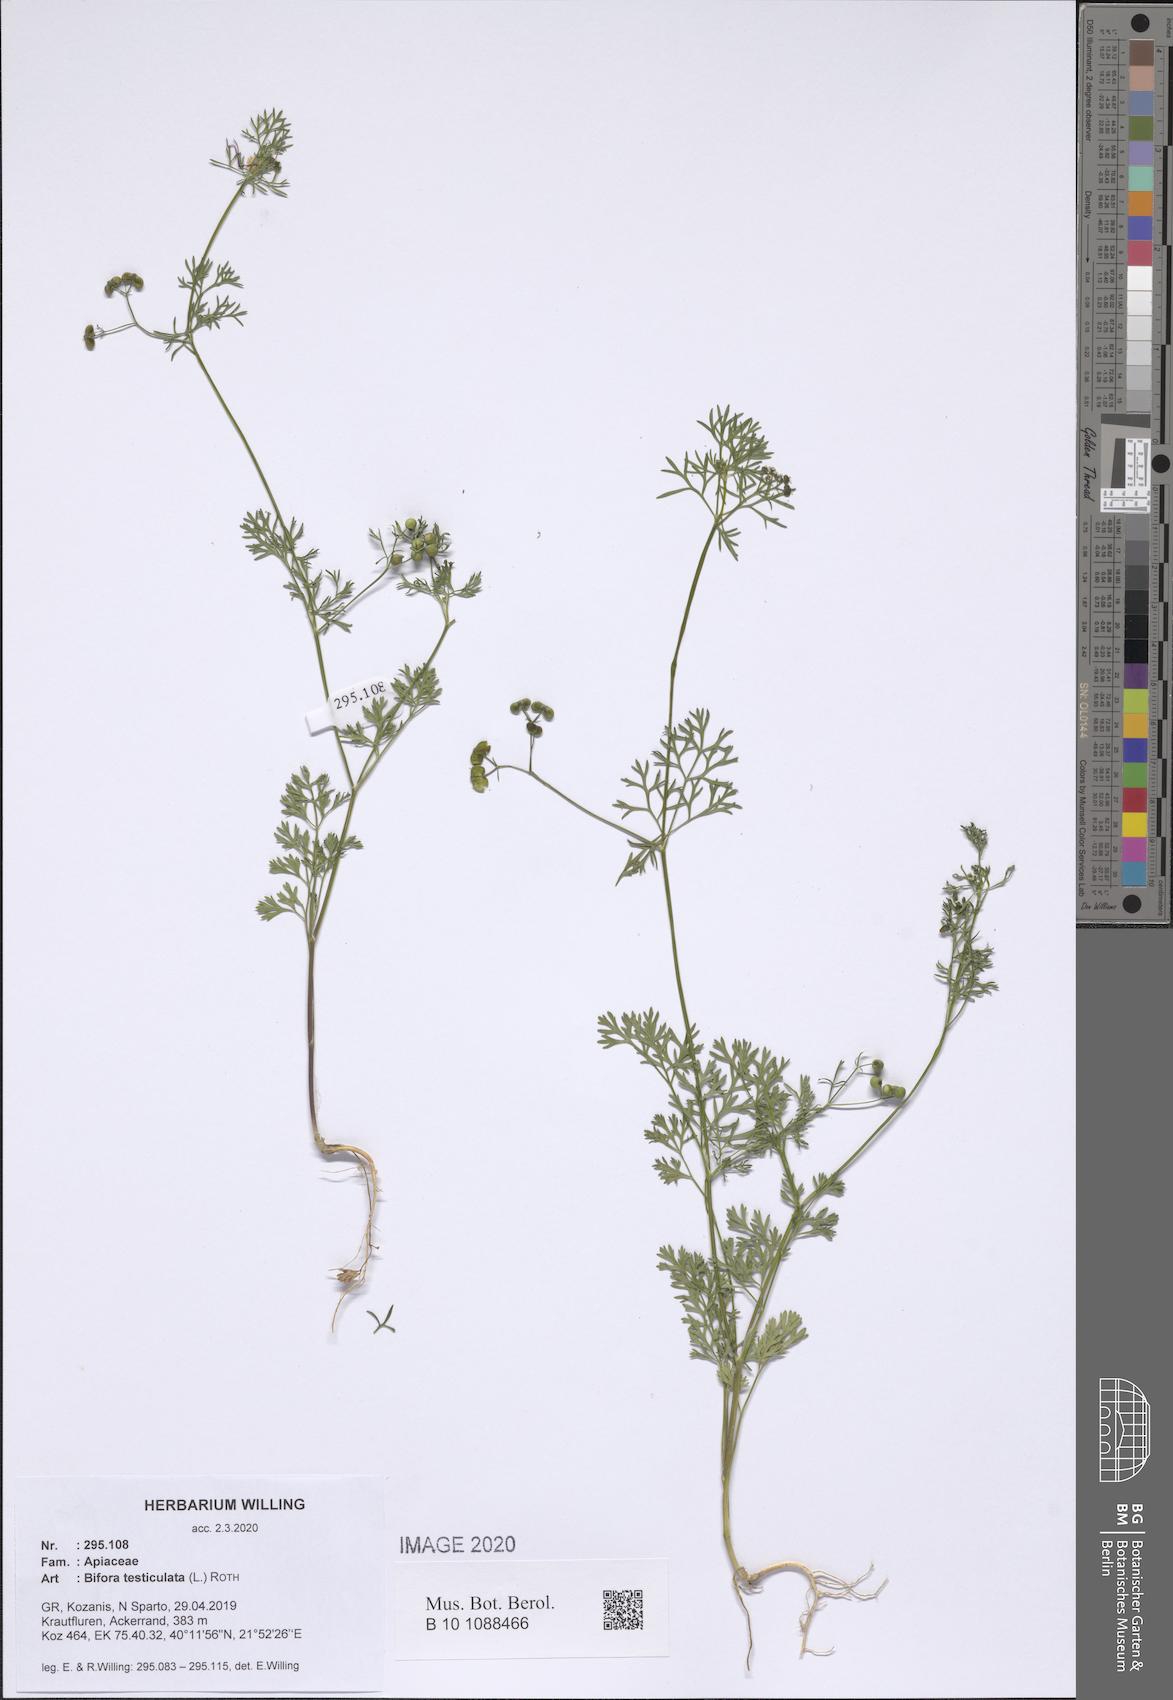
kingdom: Plantae
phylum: Tracheophyta
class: Magnoliopsida
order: Apiales
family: Apiaceae
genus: Bifora
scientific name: Bifora testiculata
